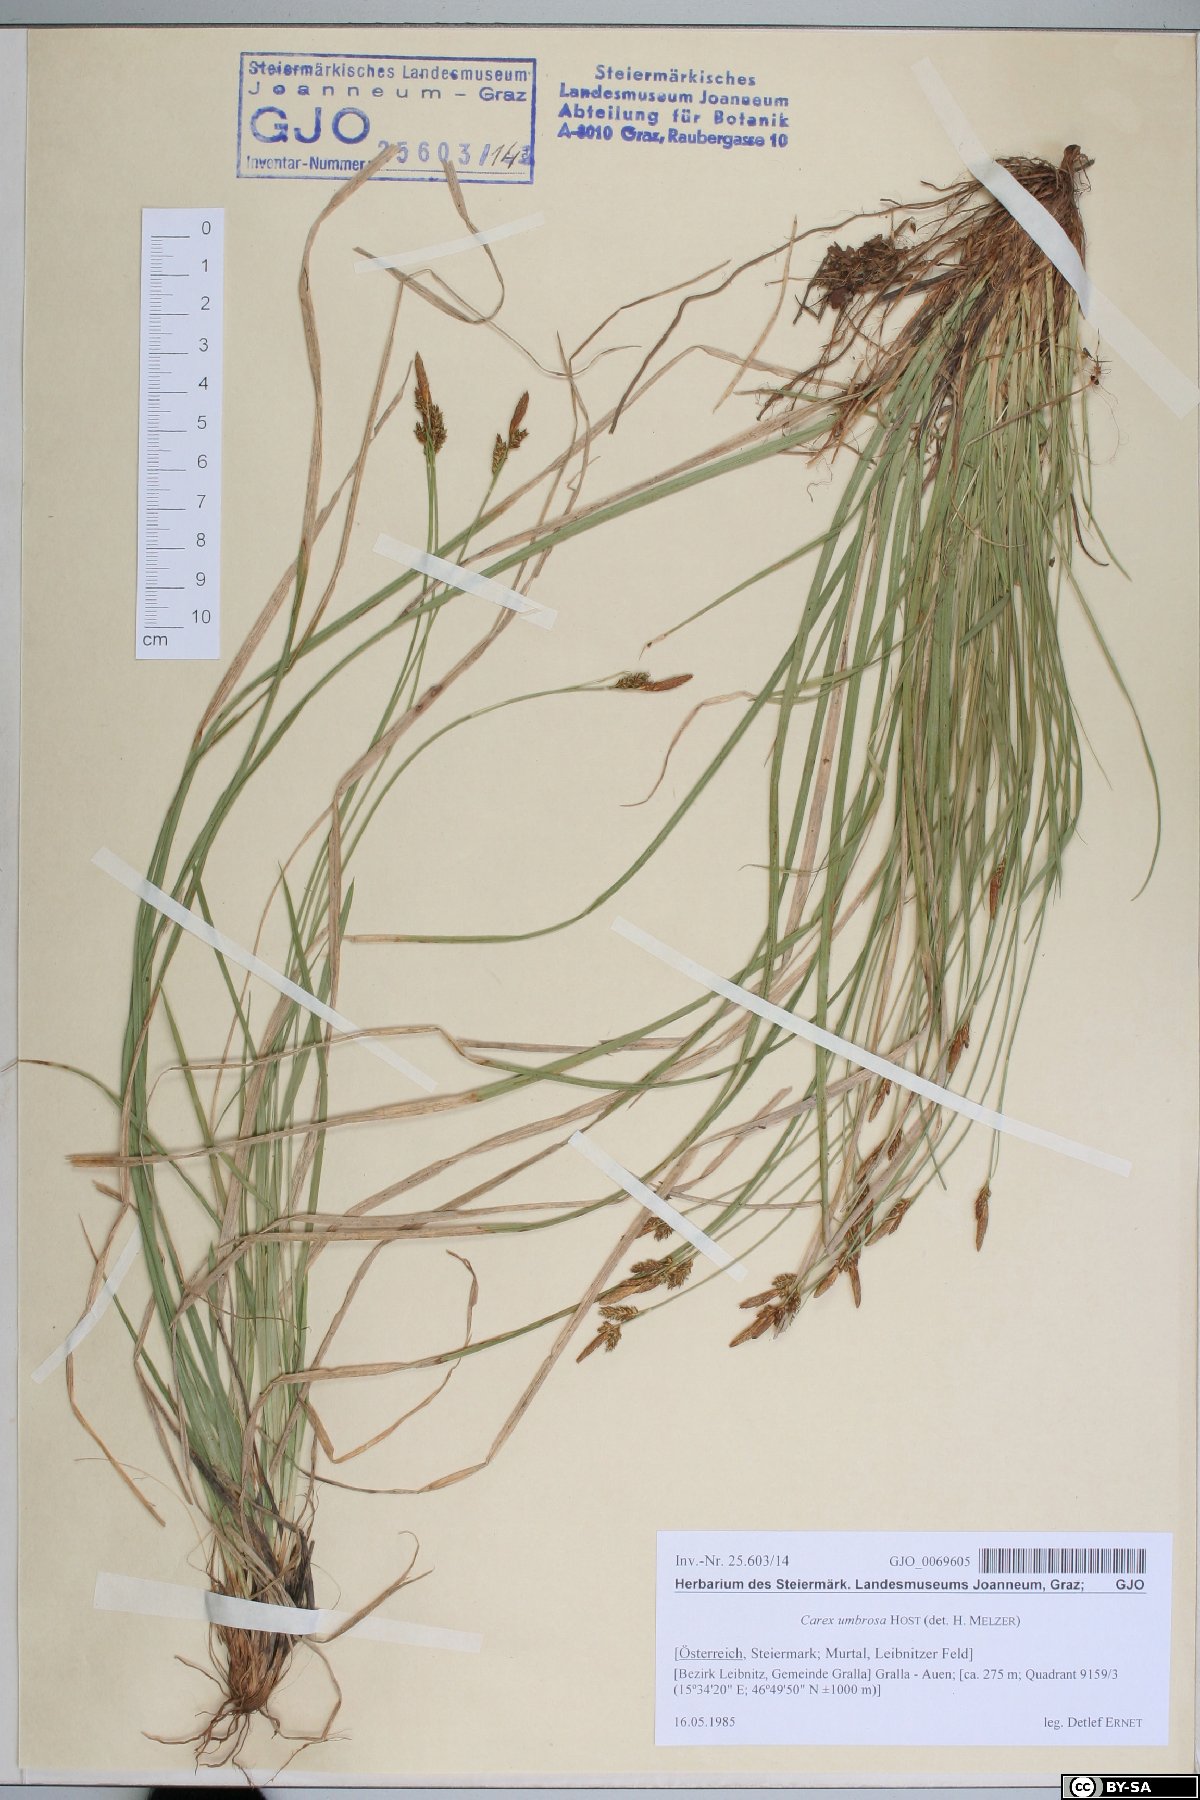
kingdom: Plantae
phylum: Tracheophyta
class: Liliopsida
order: Poales
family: Cyperaceae
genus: Carex
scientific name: Carex umbrosa
